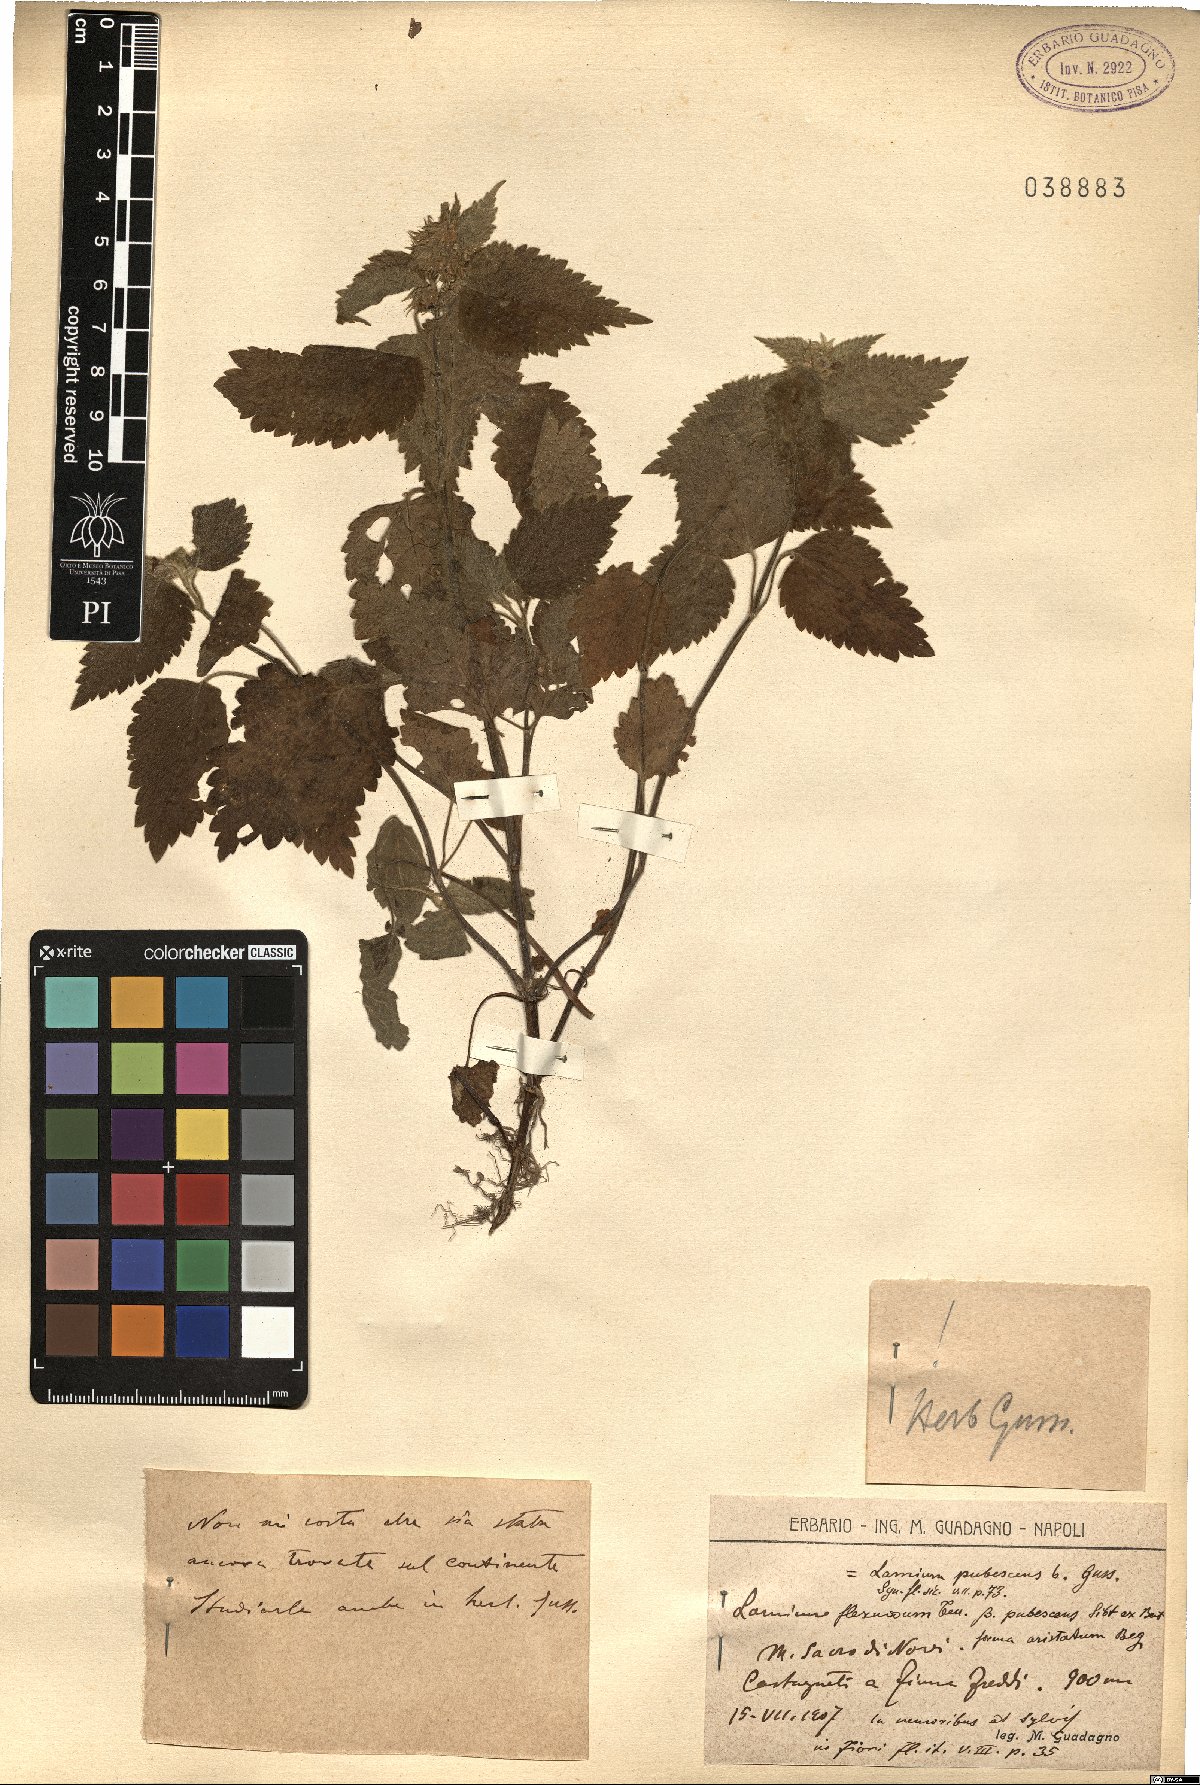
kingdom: Plantae
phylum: Tracheophyta
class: Magnoliopsida
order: Lamiales
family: Lamiaceae
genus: Lamium
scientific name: Lamium flexuosum
